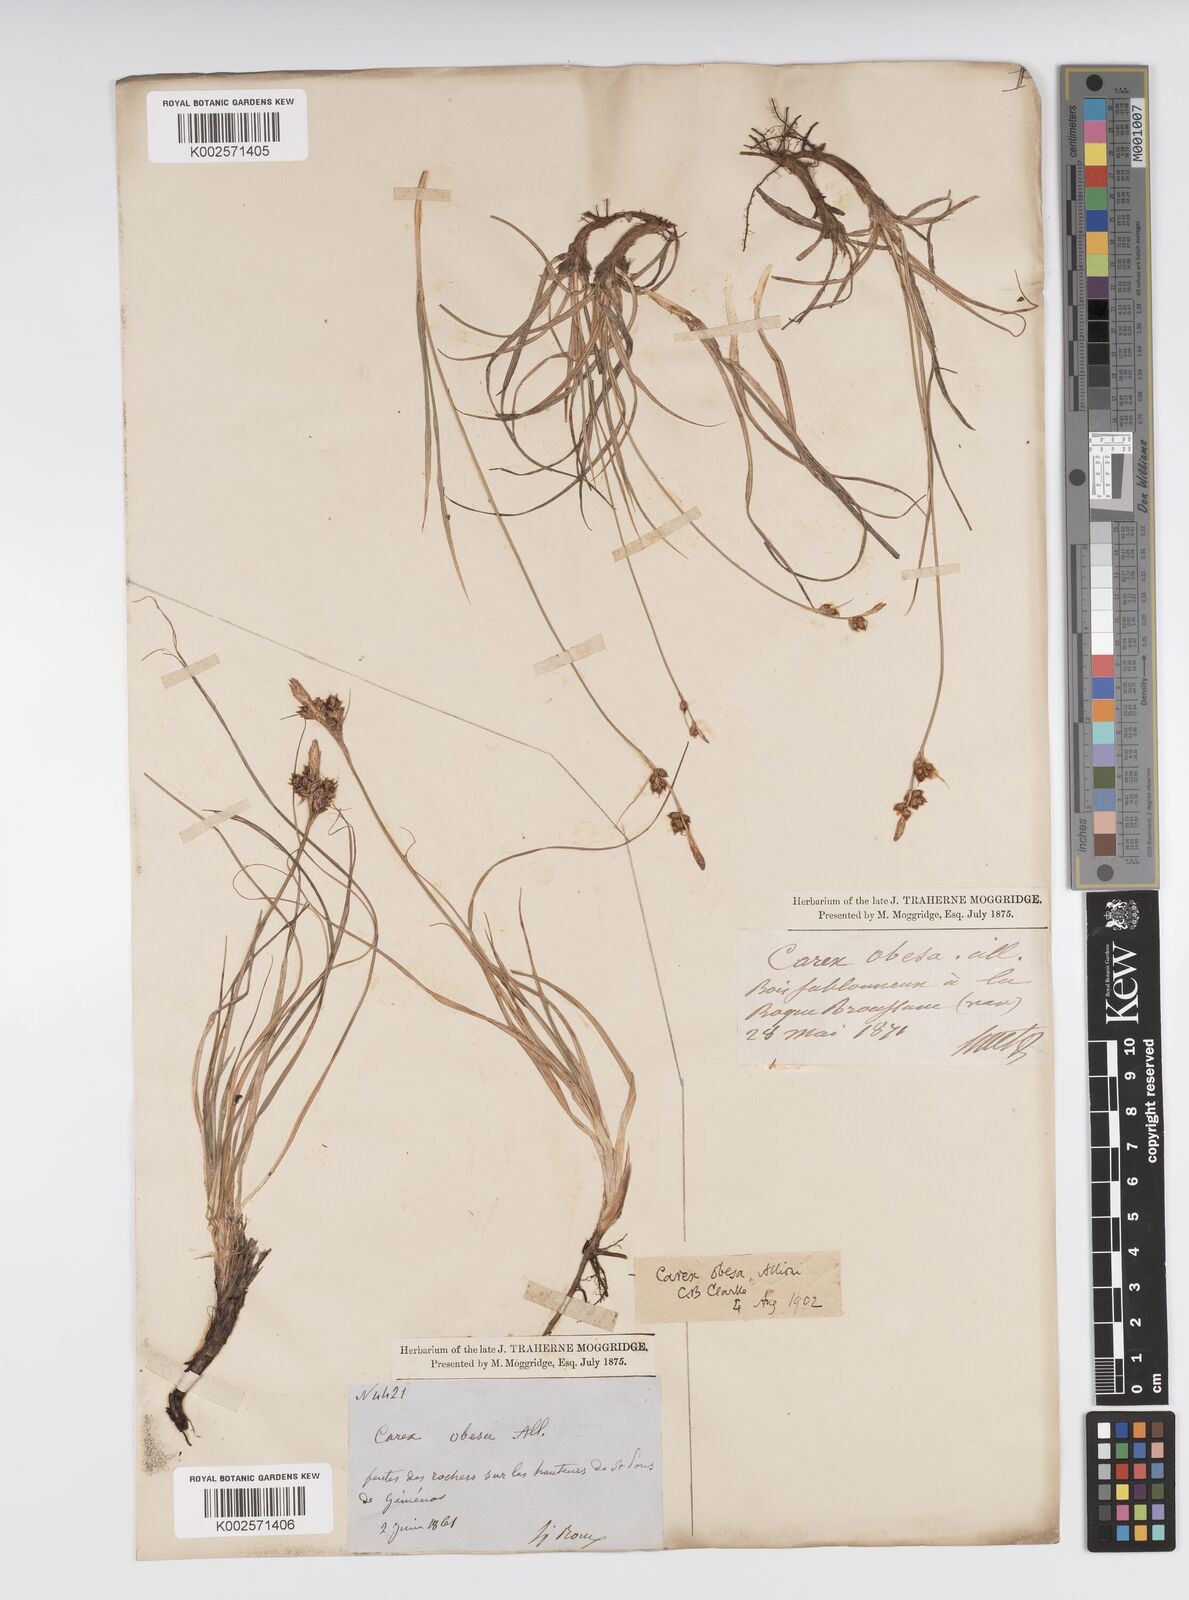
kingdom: Plantae
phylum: Tracheophyta
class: Liliopsida
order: Poales
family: Cyperaceae
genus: Carex
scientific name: Carex liparocarpos
